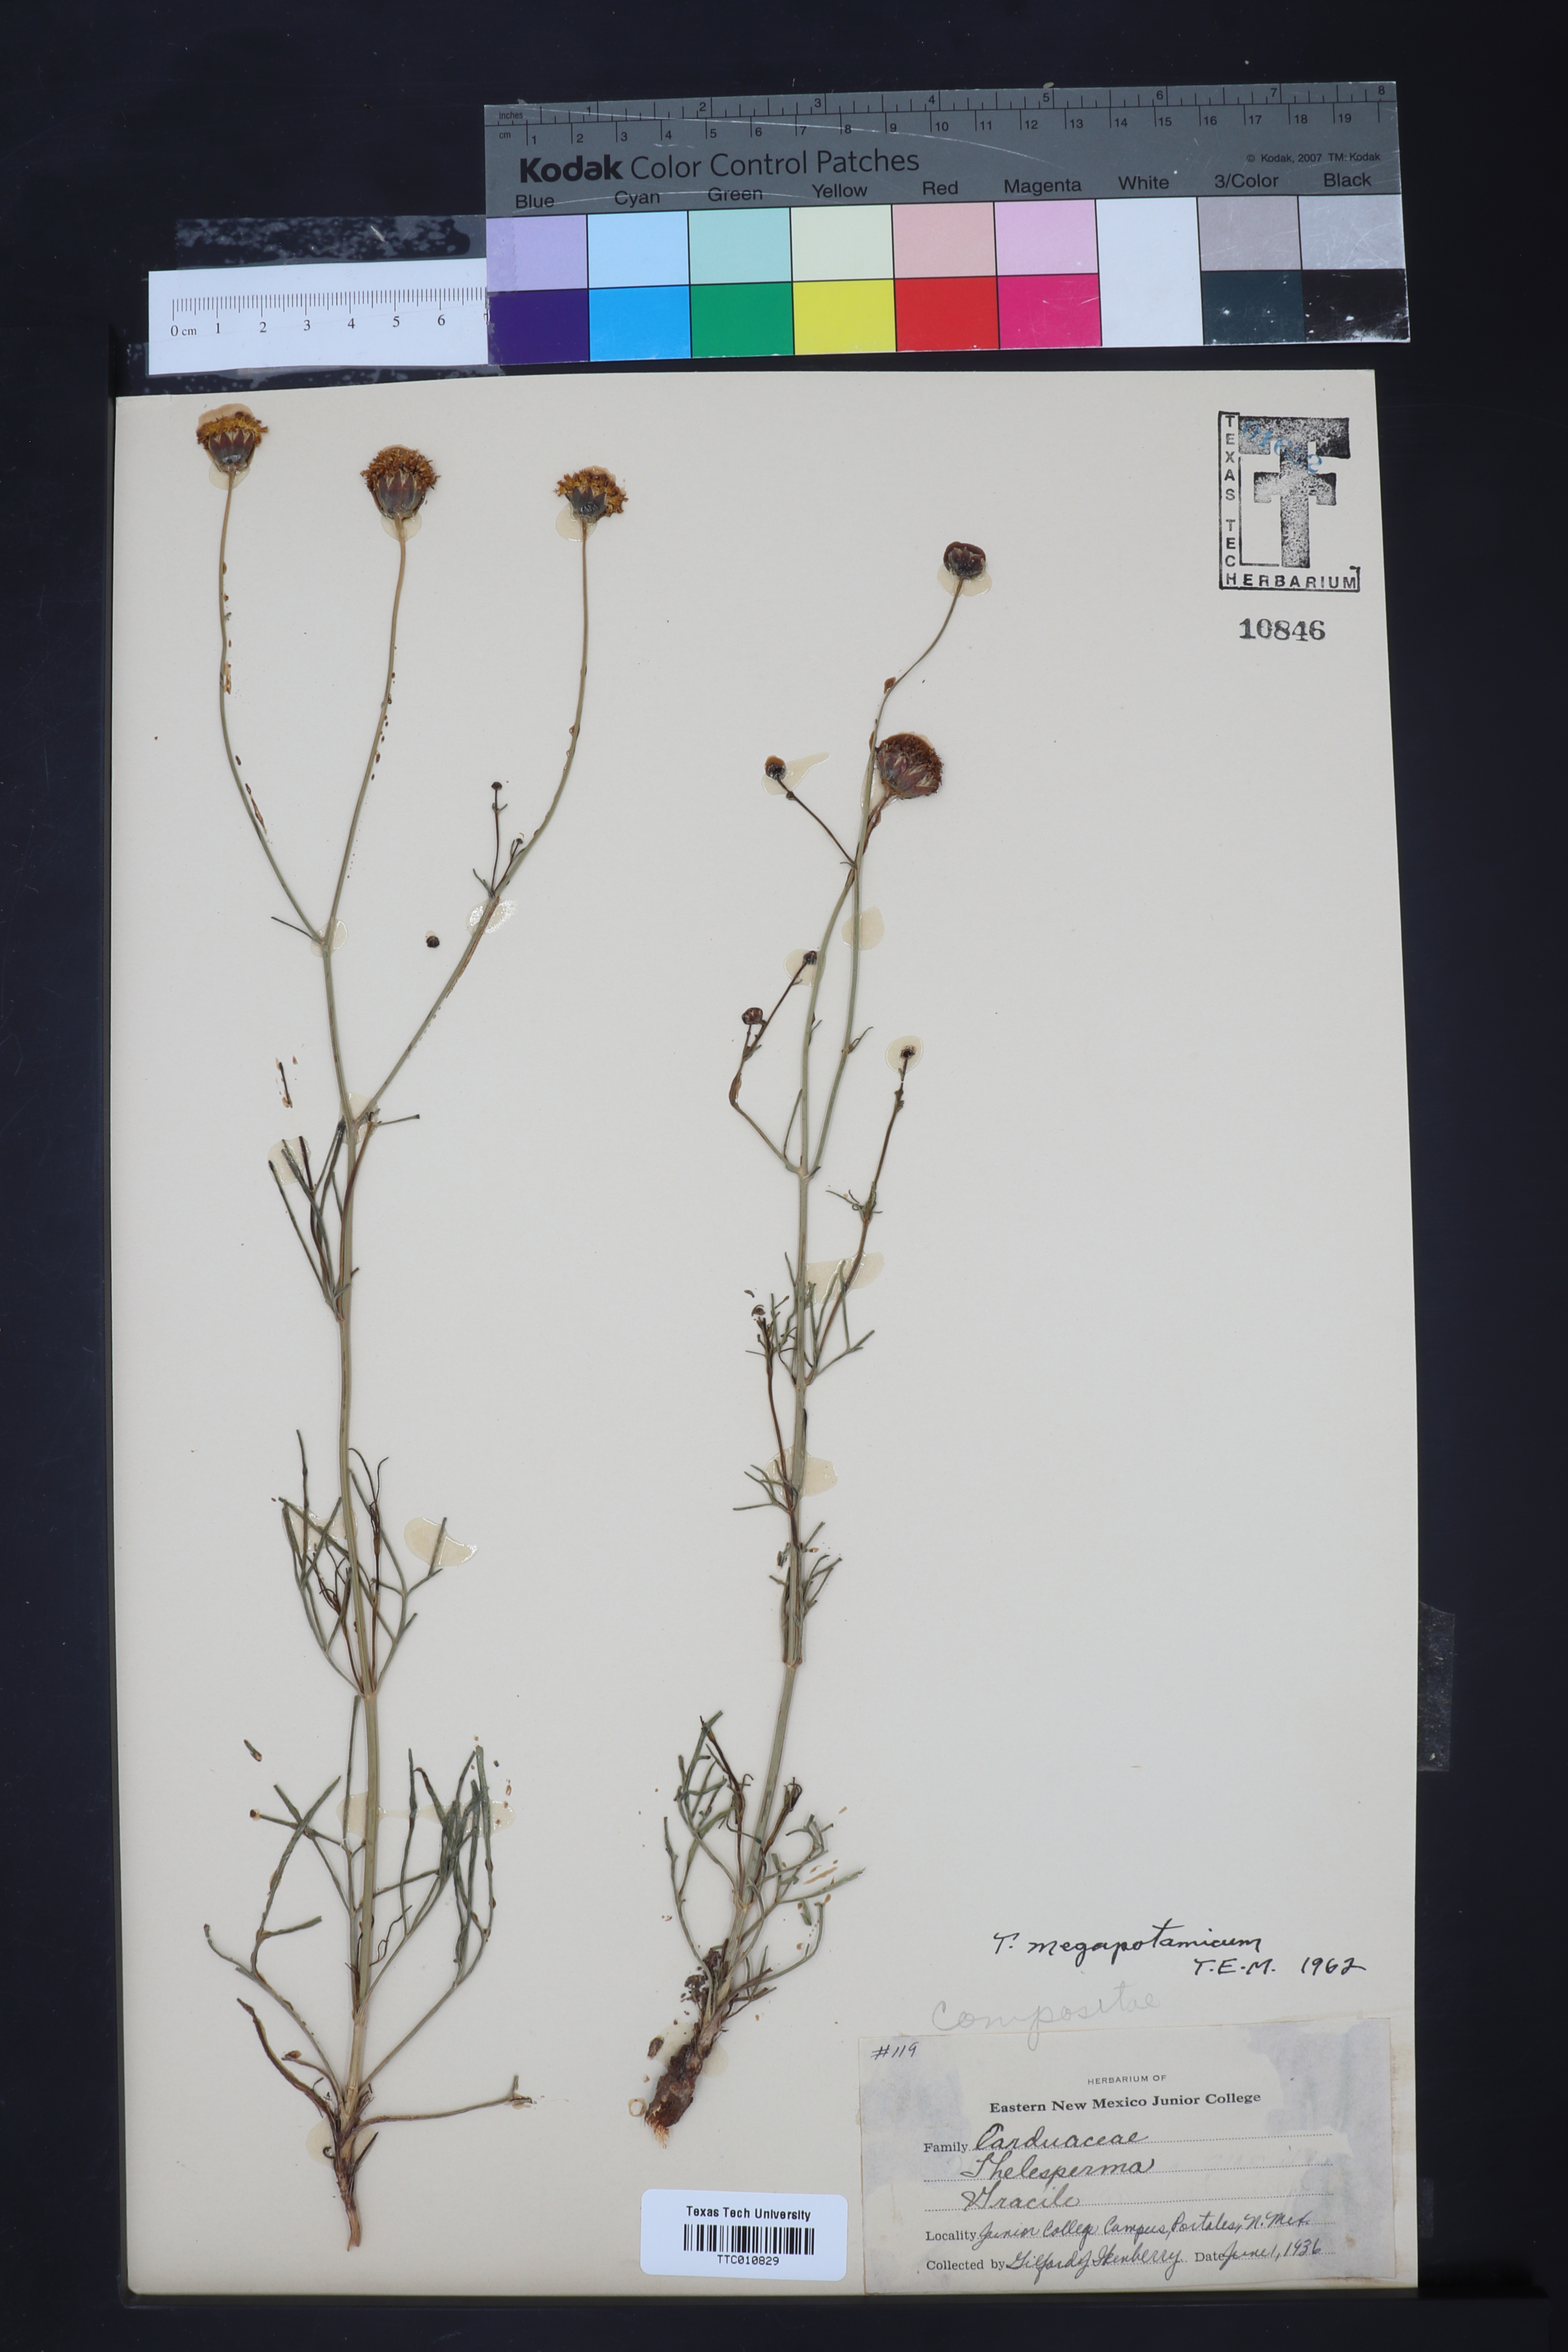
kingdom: Plantae
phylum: Tracheophyta
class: Magnoliopsida
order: Asterales
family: Asteraceae
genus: Thelesperma
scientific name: Thelesperma megapotamicum
